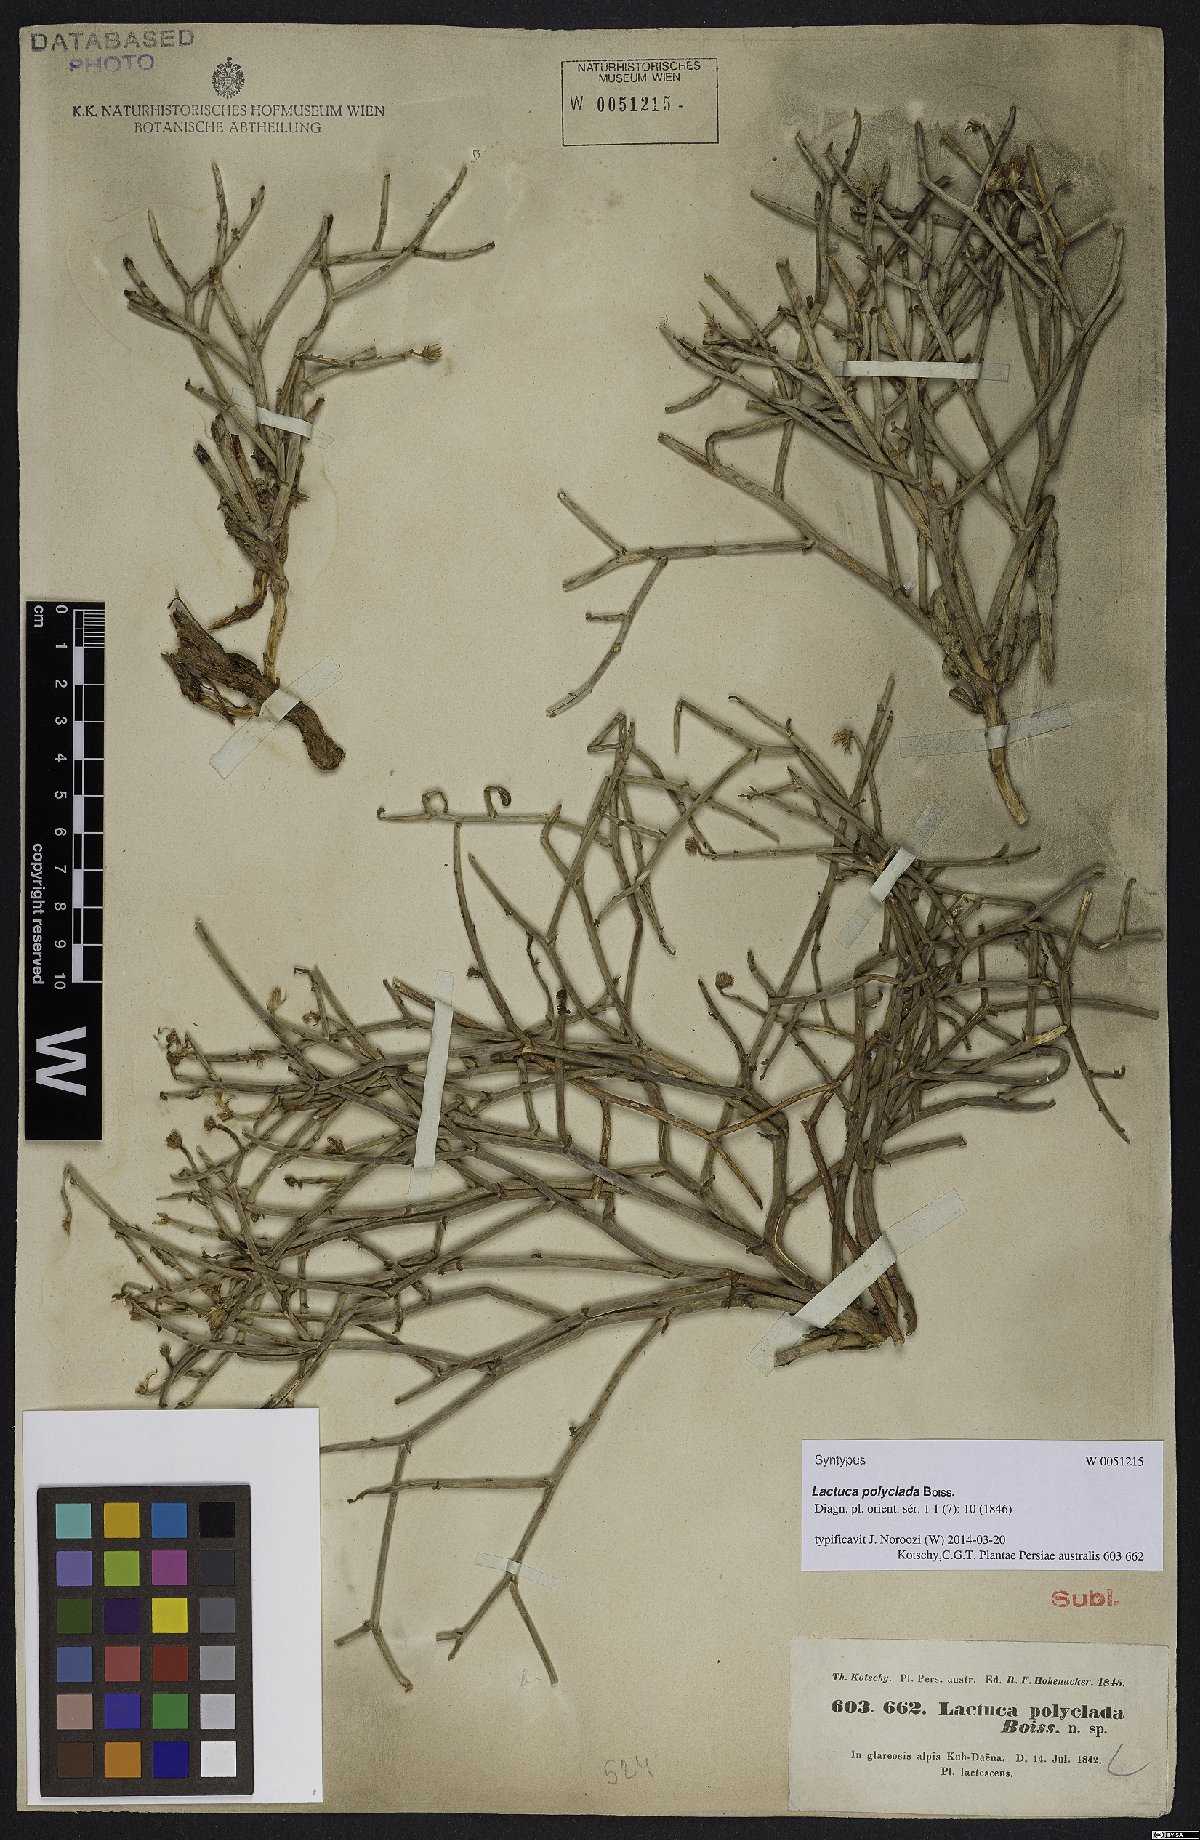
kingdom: Plantae
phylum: Tracheophyta
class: Magnoliopsida
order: Asterales
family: Asteraceae
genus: Lactuca
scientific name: Lactuca polyclada
